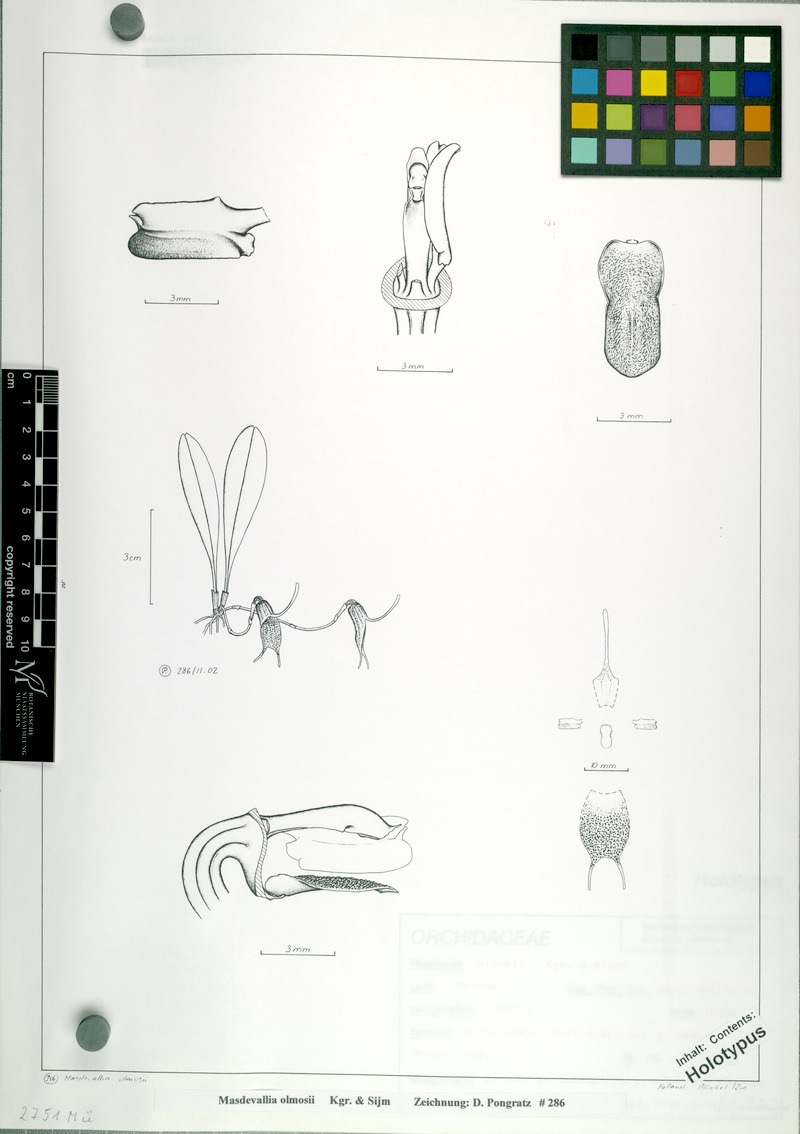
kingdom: Plantae
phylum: Tracheophyta
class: Liliopsida
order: Asparagales
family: Orchidaceae
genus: Masdevallia
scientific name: Masdevallia olmosii
